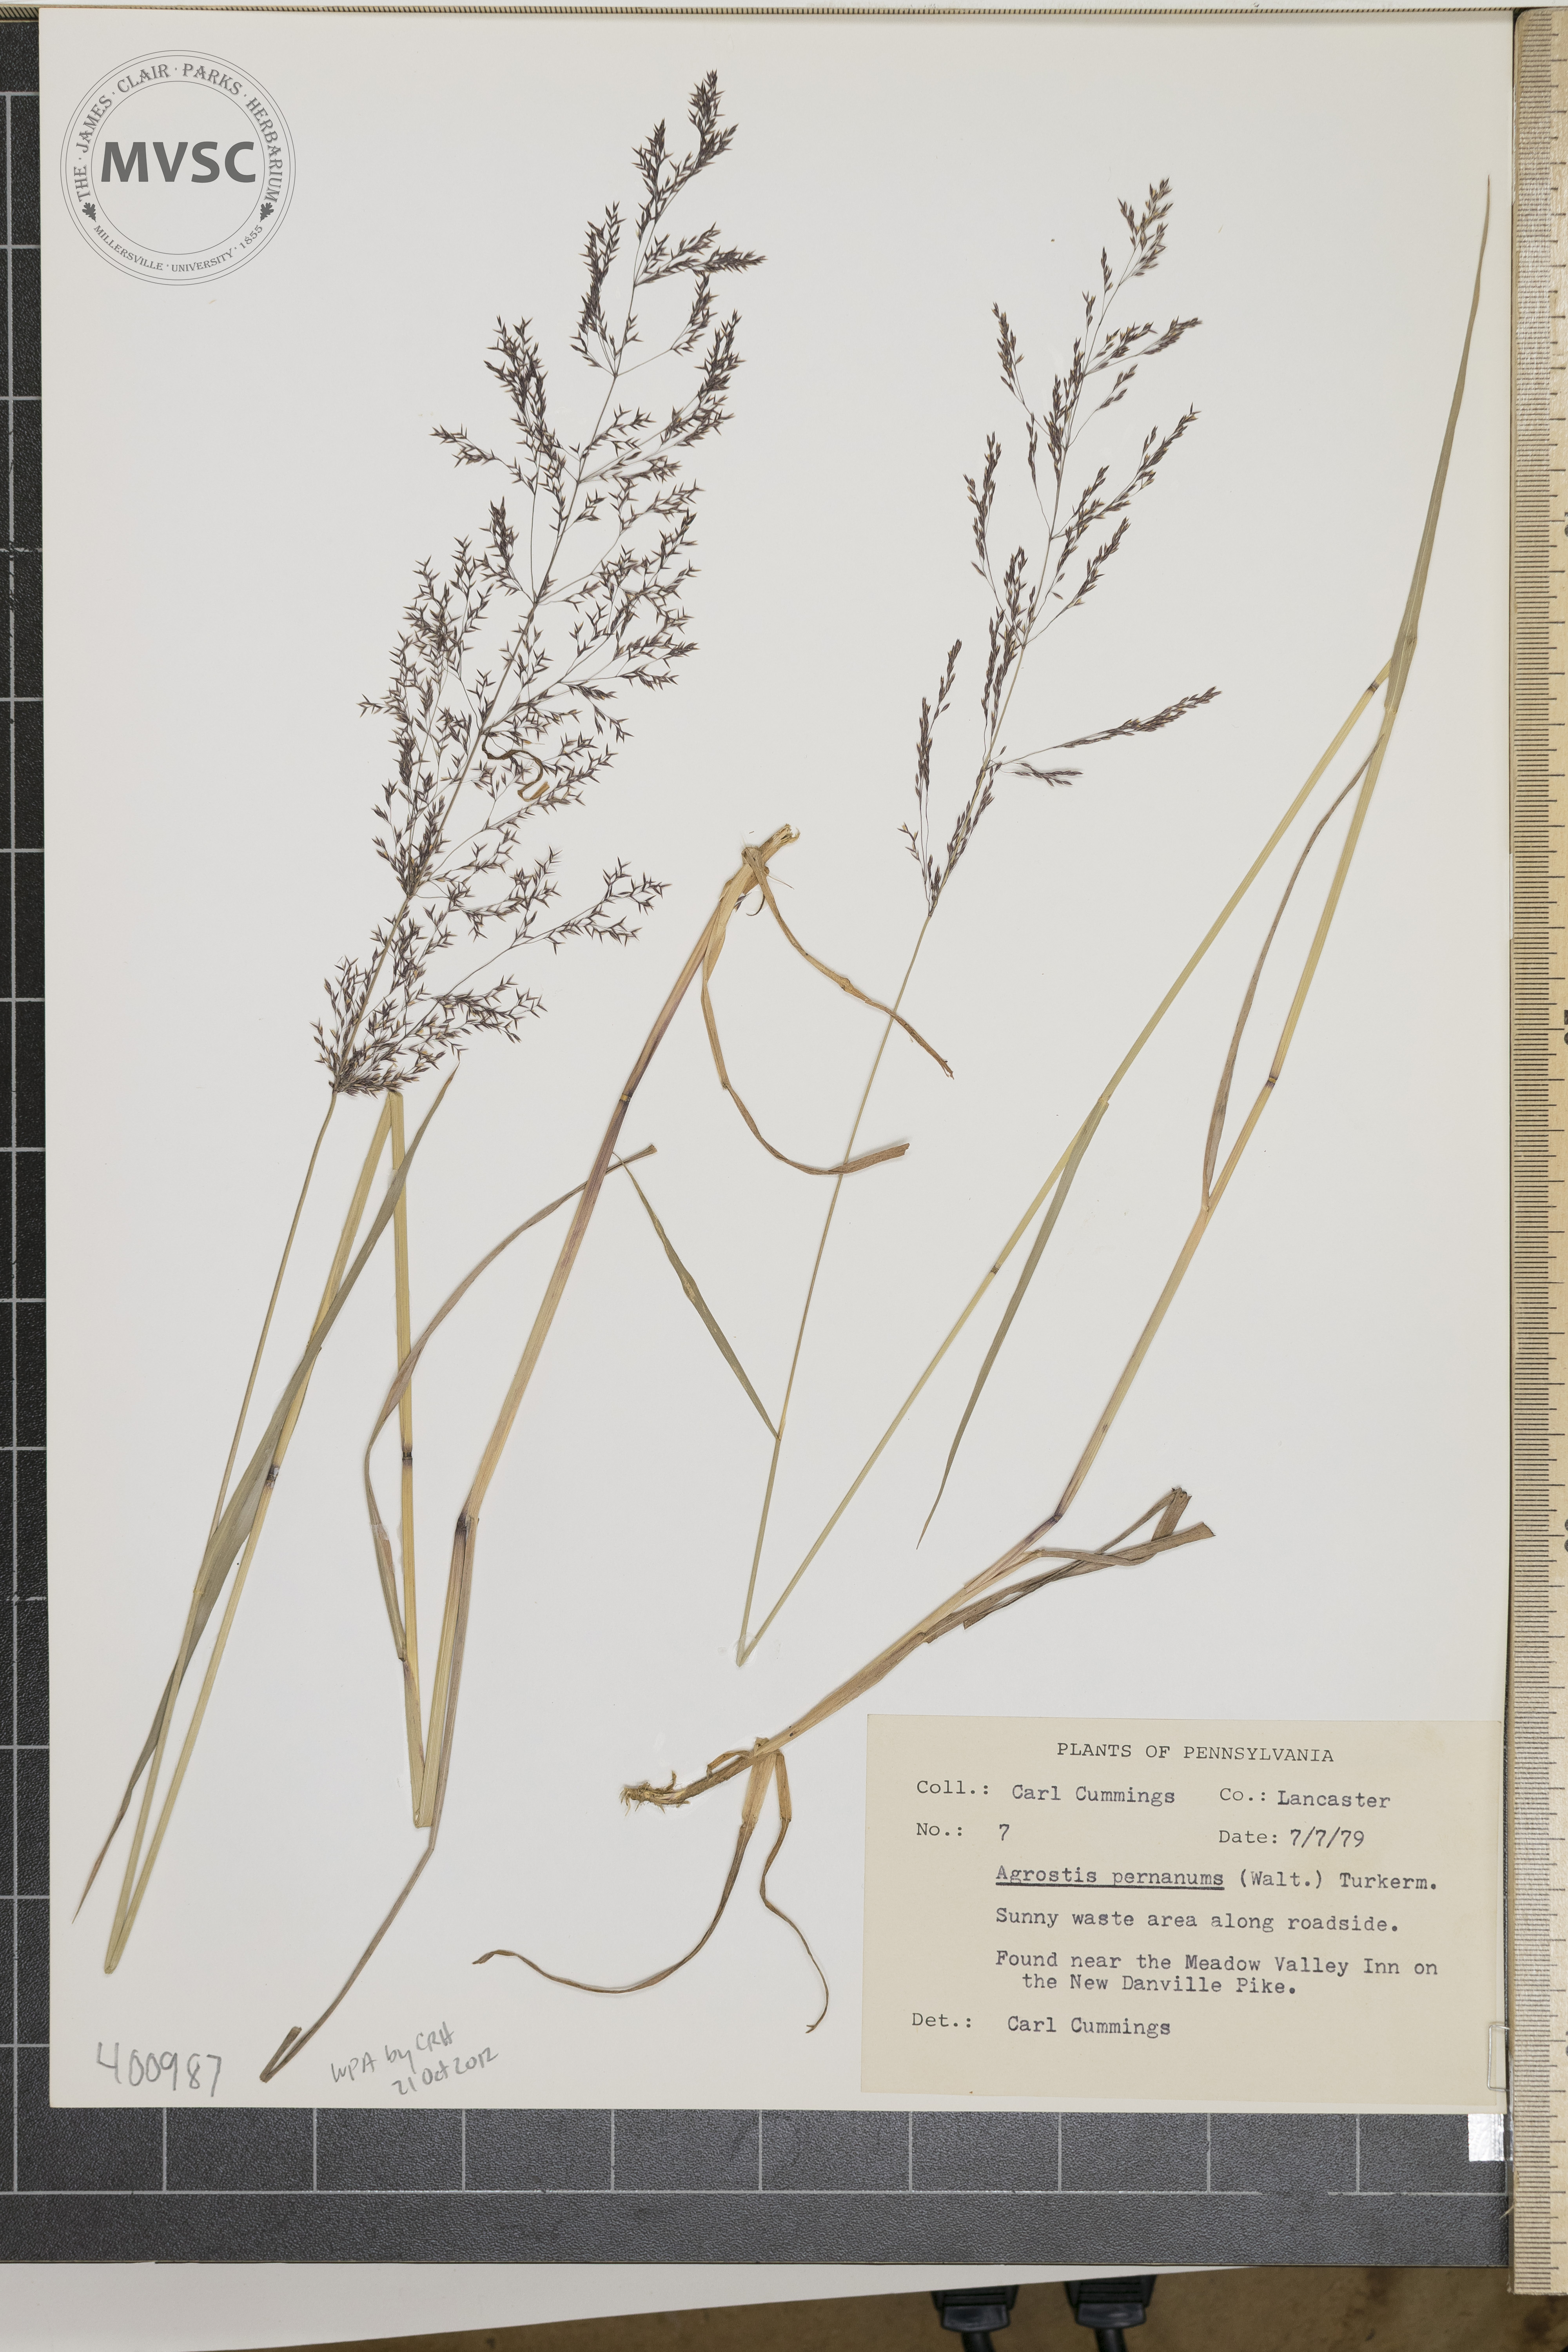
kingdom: Plantae
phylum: Tracheophyta
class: Liliopsida
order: Poales
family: Poaceae
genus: Agrostis
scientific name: Agrostis gigantea
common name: Black bent
